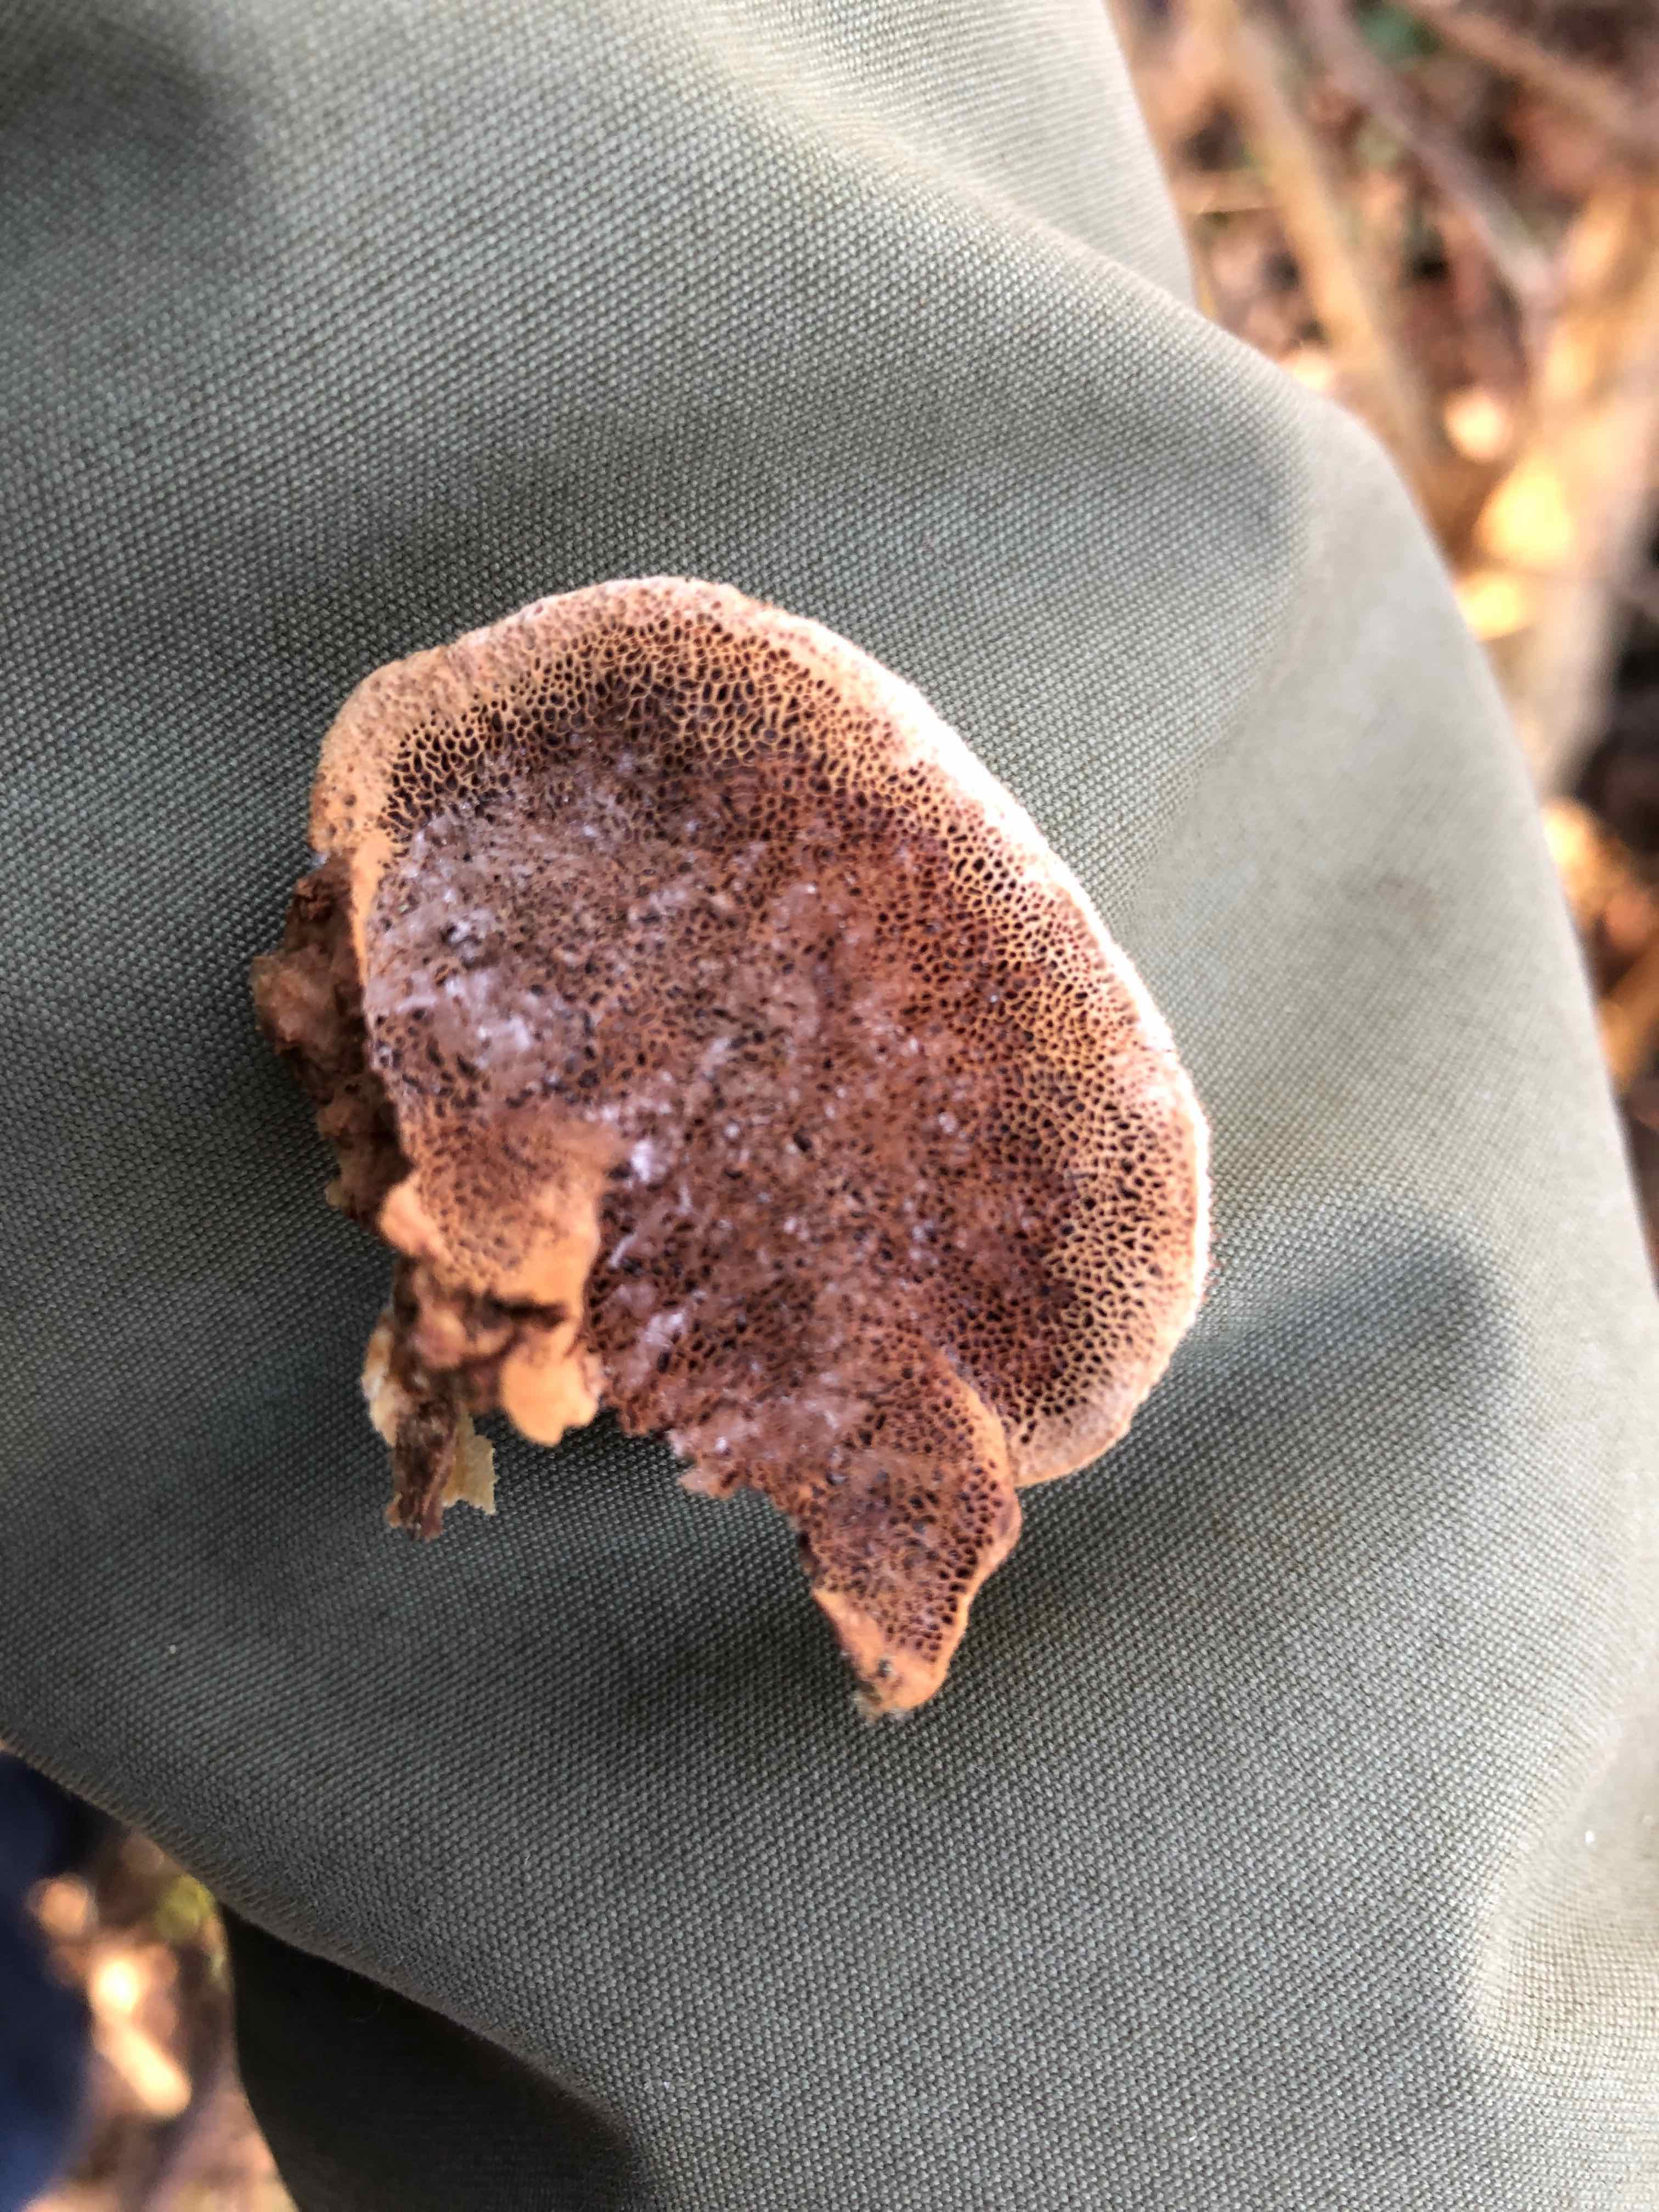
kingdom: Fungi
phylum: Basidiomycota
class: Agaricomycetes
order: Polyporales
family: Phanerochaetaceae
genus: Hapalopilus
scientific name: Hapalopilus rutilans
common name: rødlig okkerporesvamp
